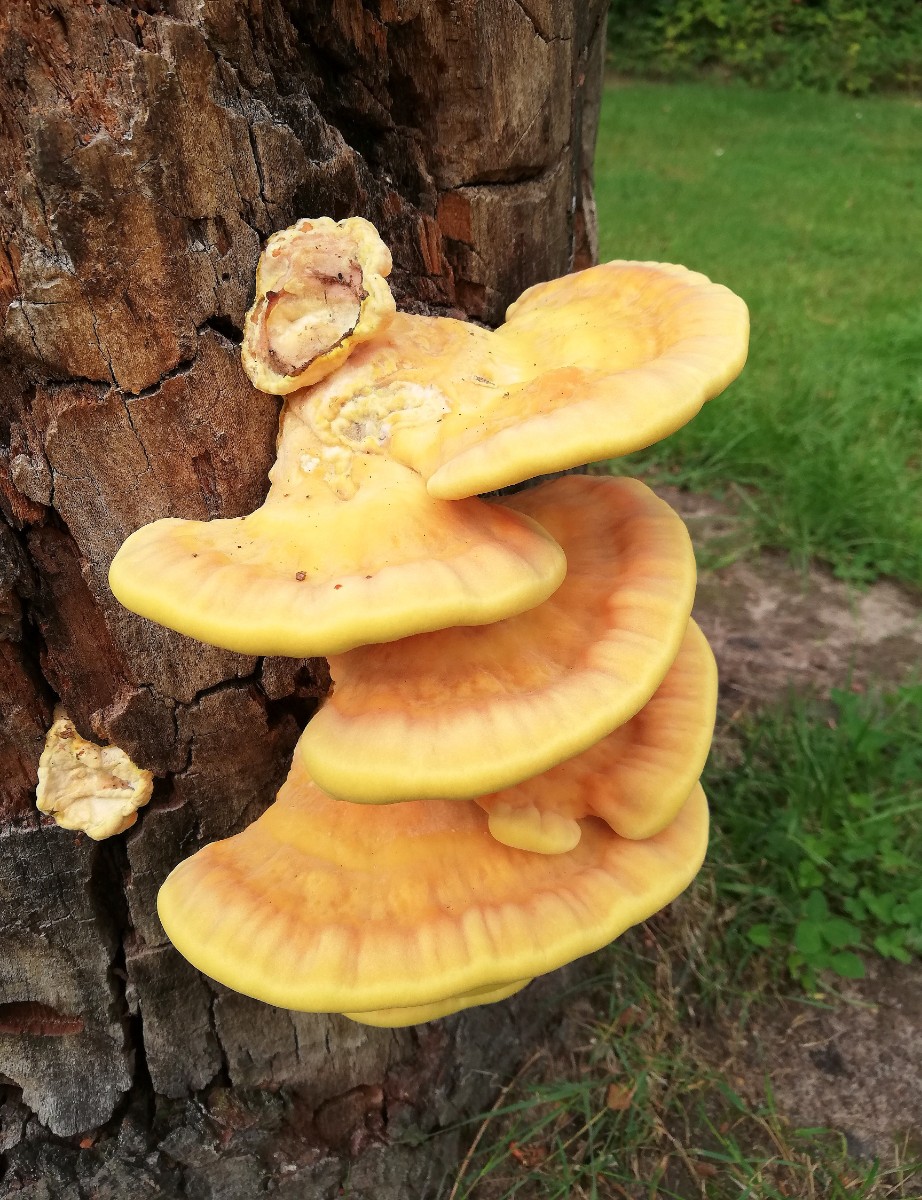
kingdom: Fungi
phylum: Basidiomycota
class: Agaricomycetes
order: Polyporales
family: Laetiporaceae
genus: Laetiporus
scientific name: Laetiporus sulphureus
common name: svovlporesvamp
